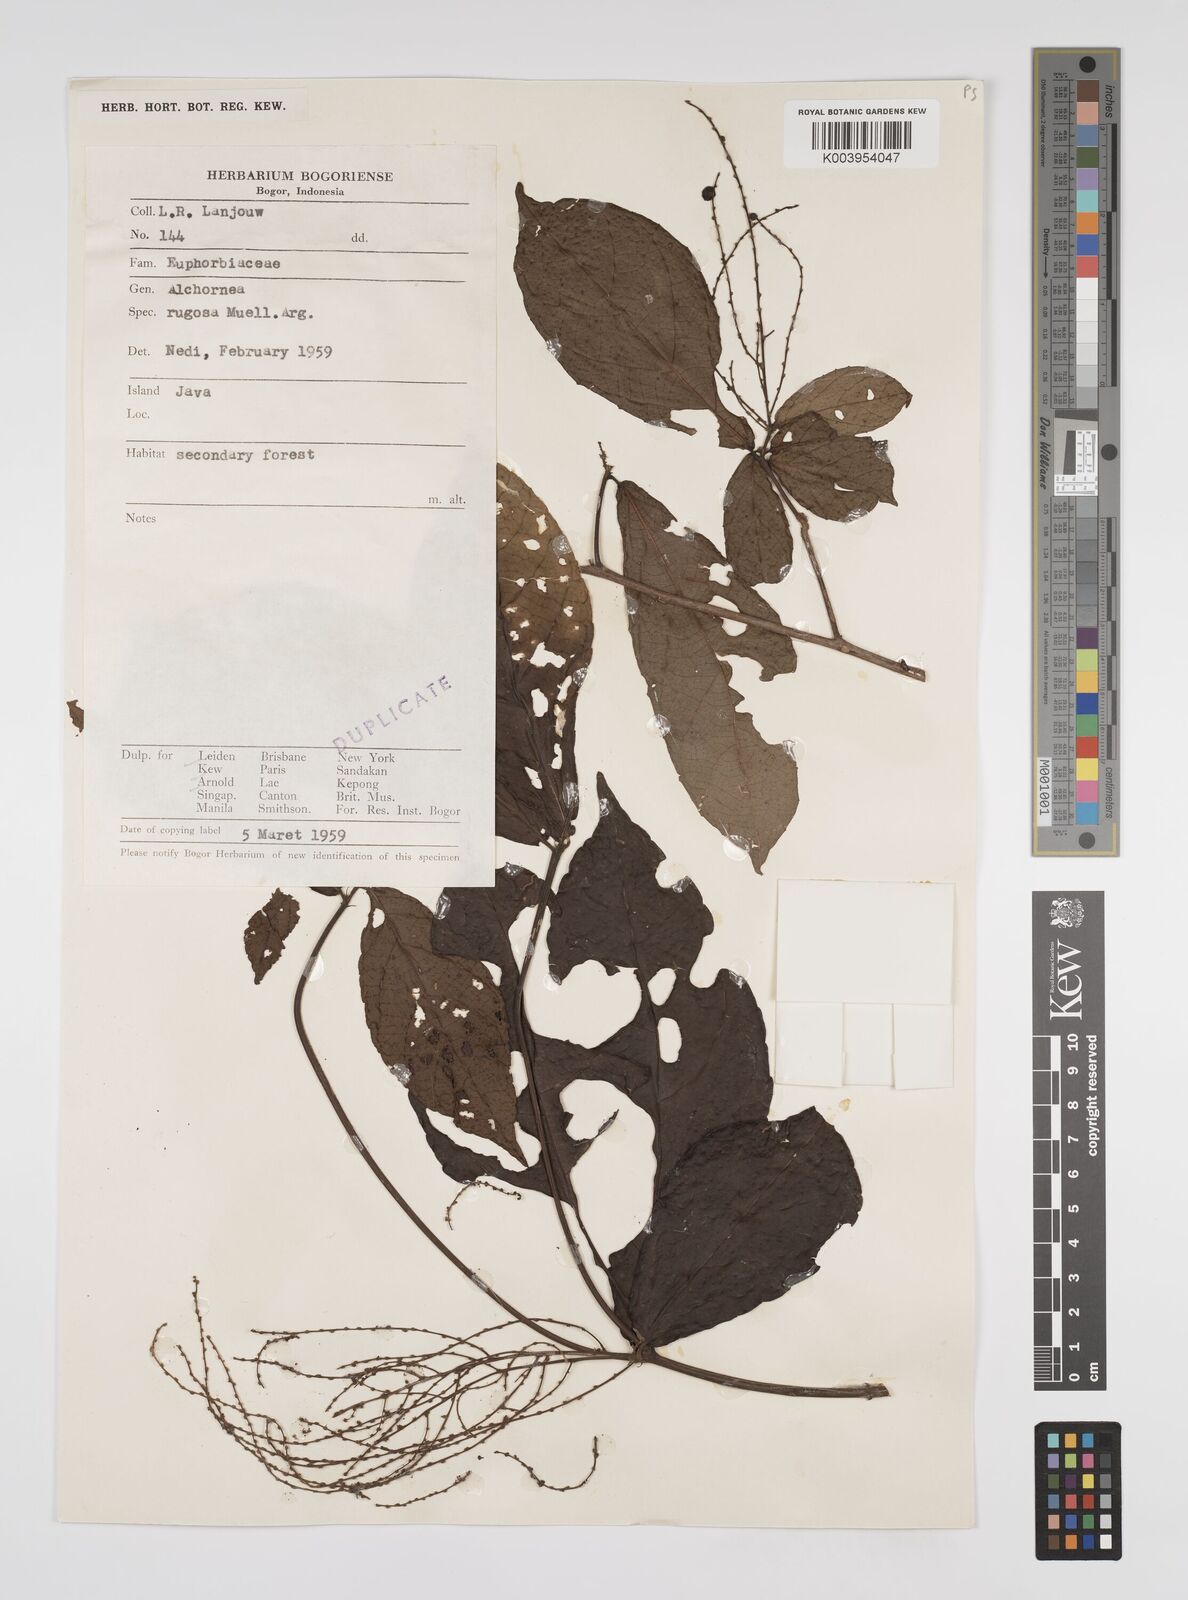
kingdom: Plantae
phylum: Tracheophyta
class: Magnoliopsida
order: Malpighiales
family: Euphorbiaceae
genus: Alchornea
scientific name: Alchornea rugosa
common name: Alchorntree
